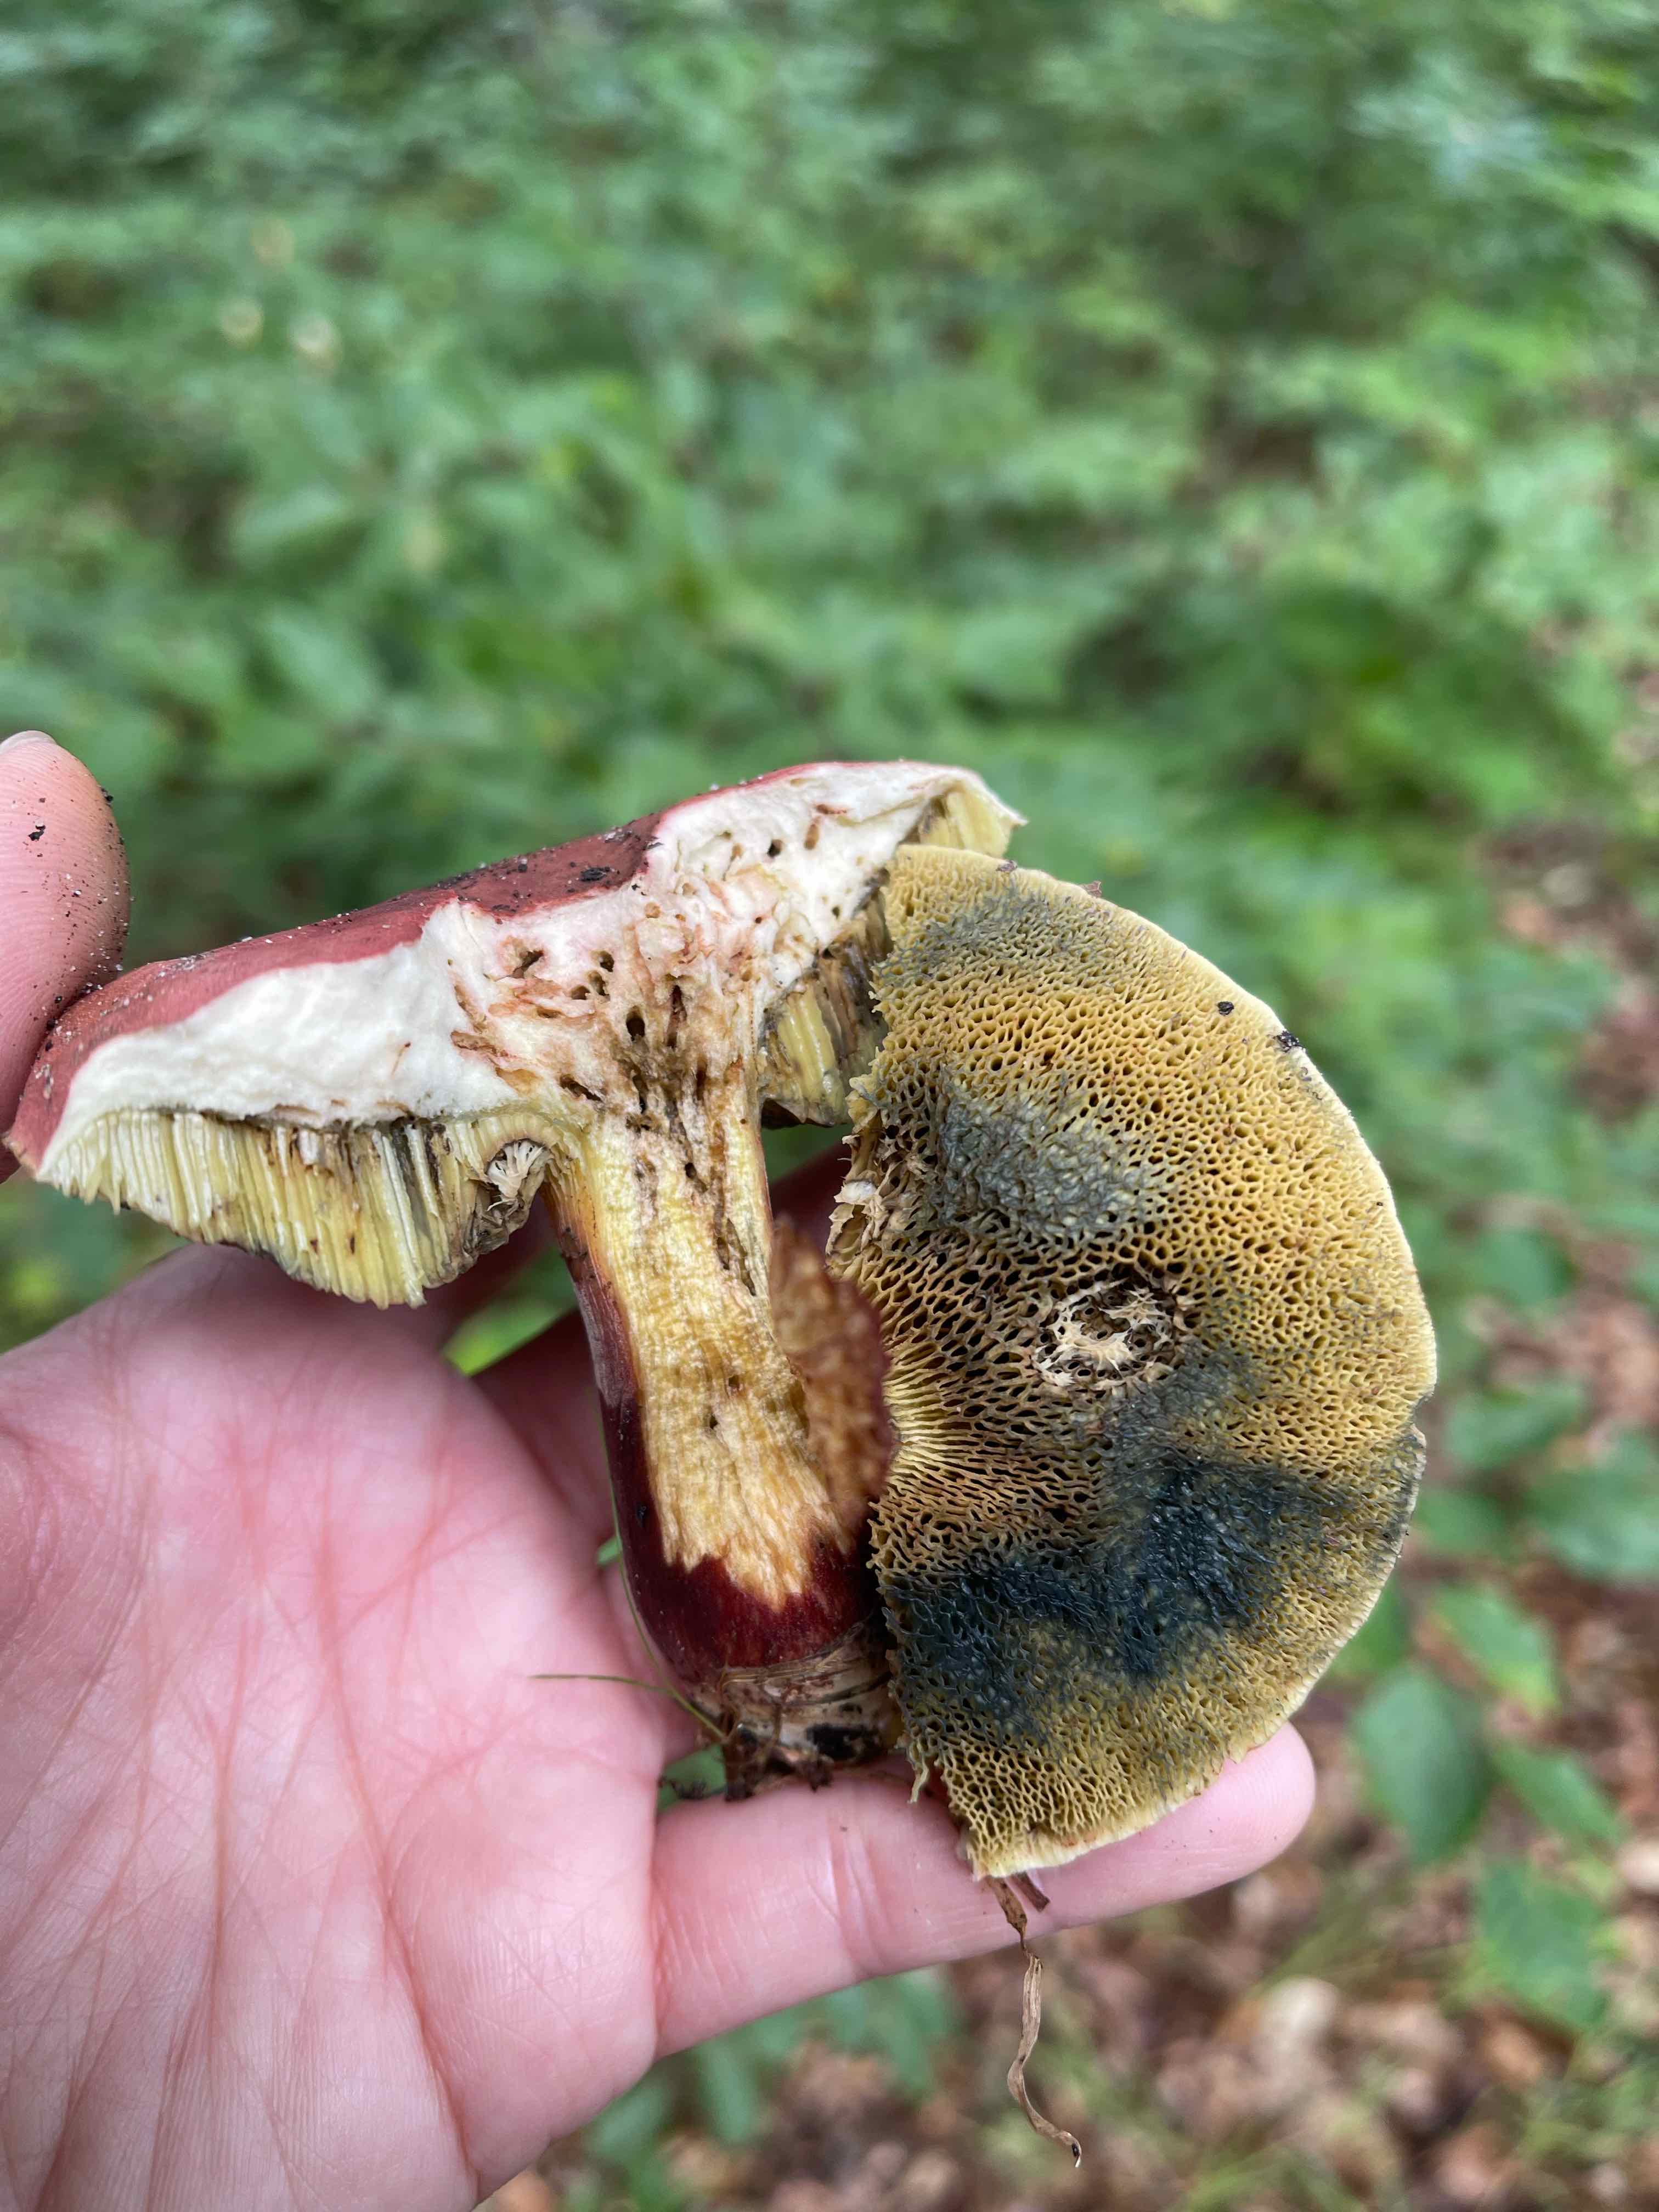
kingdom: Fungi
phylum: Basidiomycota
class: Agaricomycetes
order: Boletales
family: Boletaceae
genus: Hortiboletus
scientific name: Hortiboletus rubellus
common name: blodrød rørhat
